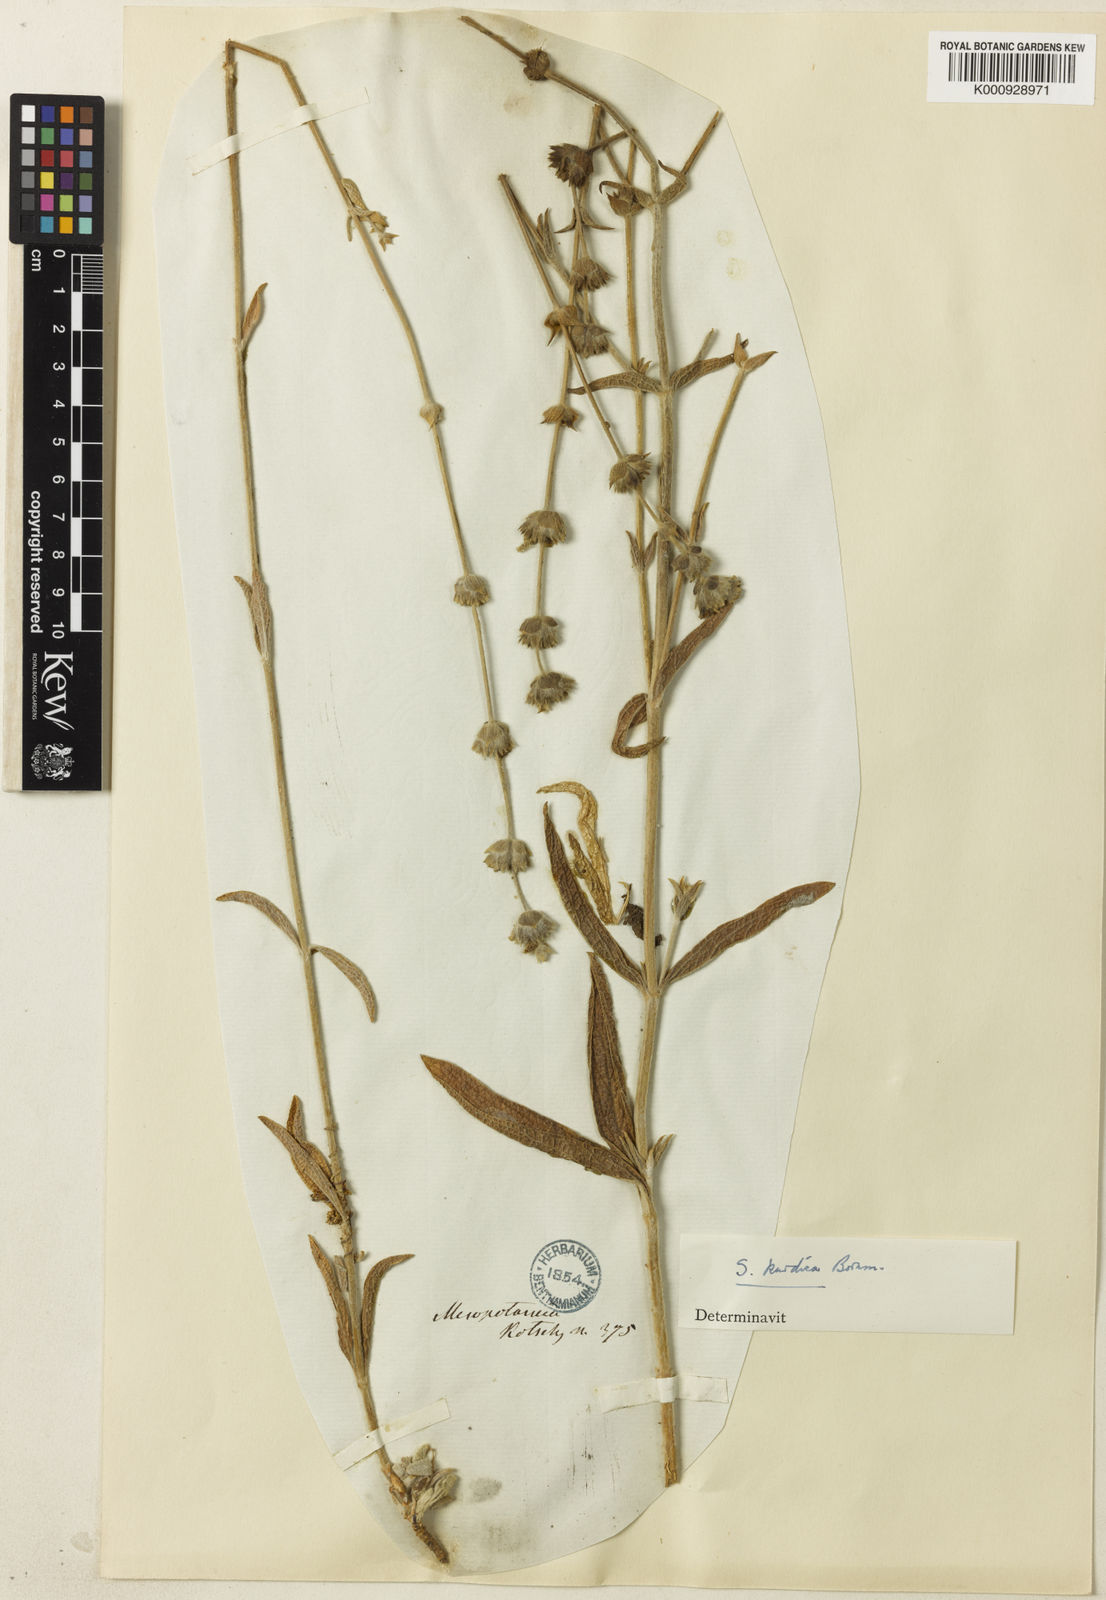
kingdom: Plantae
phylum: Tracheophyta
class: Magnoliopsida
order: Lamiales
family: Lamiaceae
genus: Sideritis
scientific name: Sideritis pisidica
